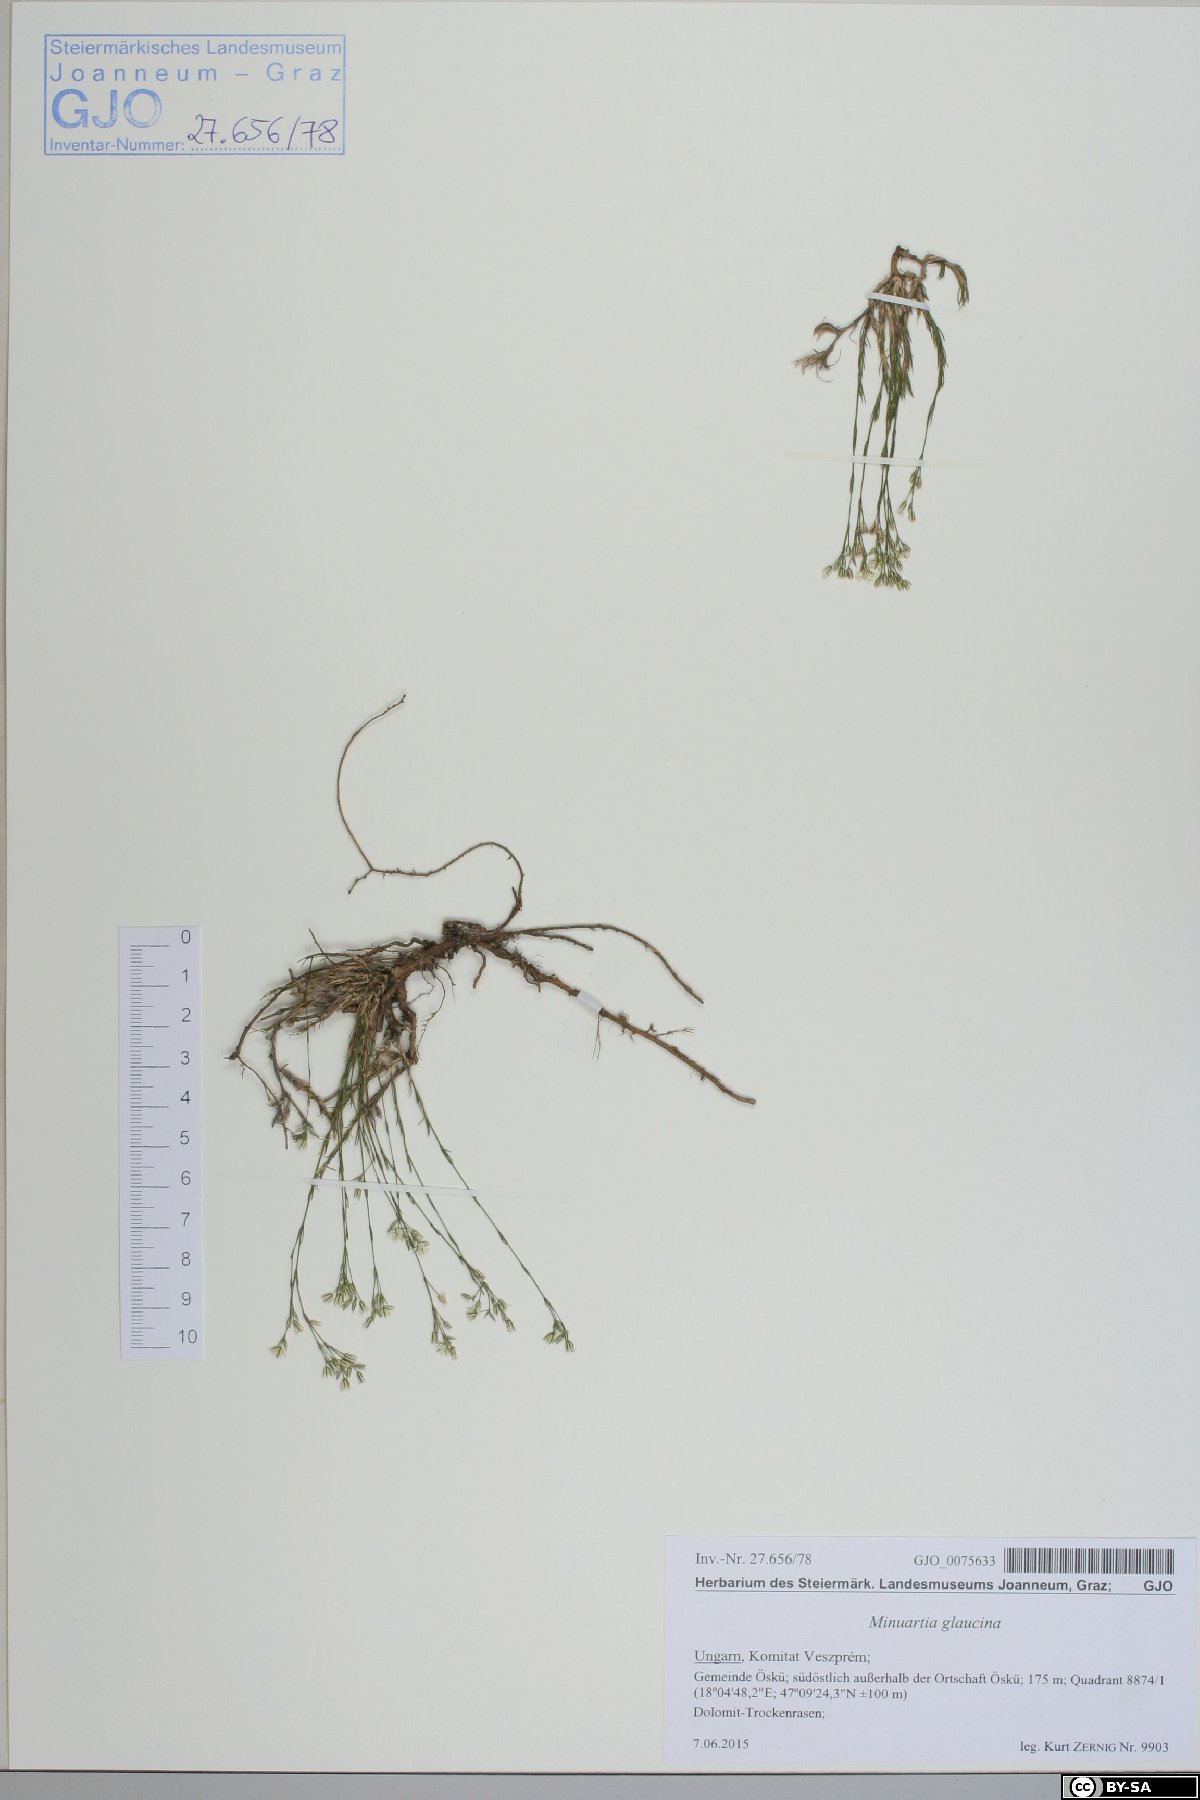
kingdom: Plantae
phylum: Tracheophyta
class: Magnoliopsida
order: Caryophyllales
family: Caryophyllaceae
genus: Sabulina
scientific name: Sabulina glaucina
